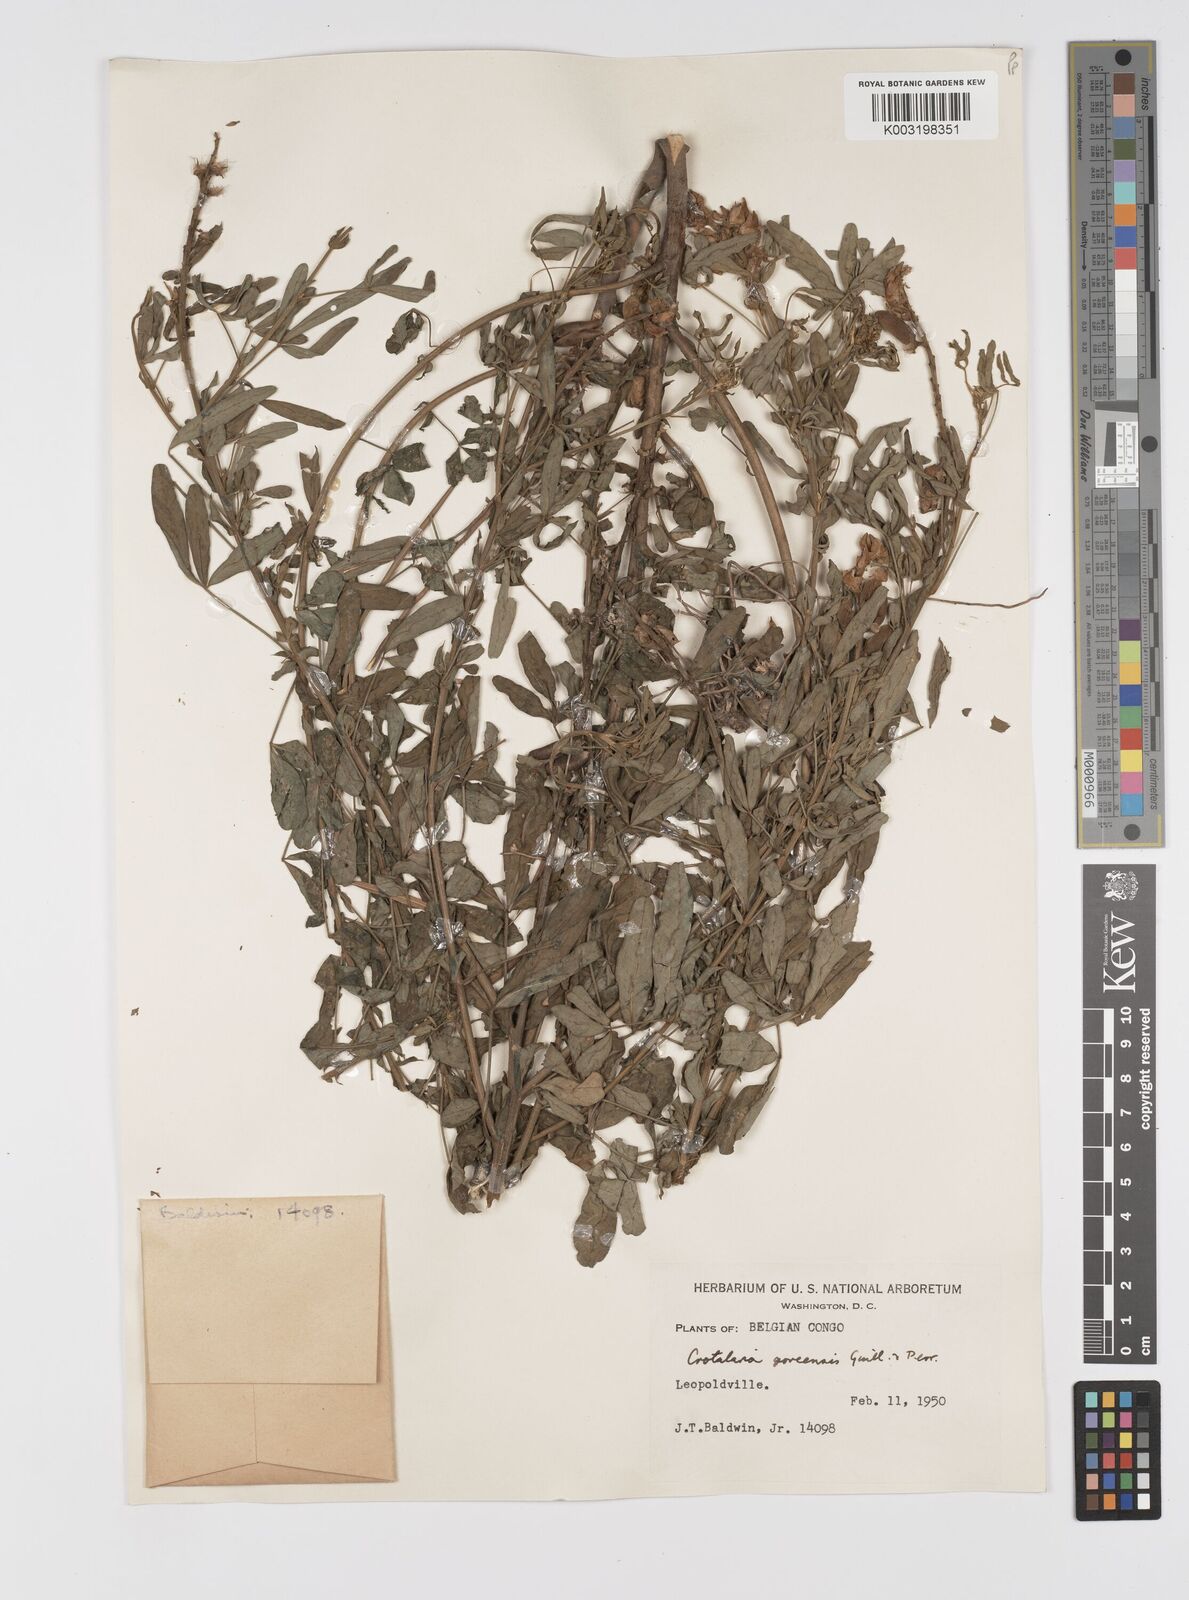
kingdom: Plantae
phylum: Tracheophyta
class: Magnoliopsida
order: Fabales
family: Fabaceae
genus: Crotalaria
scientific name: Crotalaria goreensis
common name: Gambia-pea
